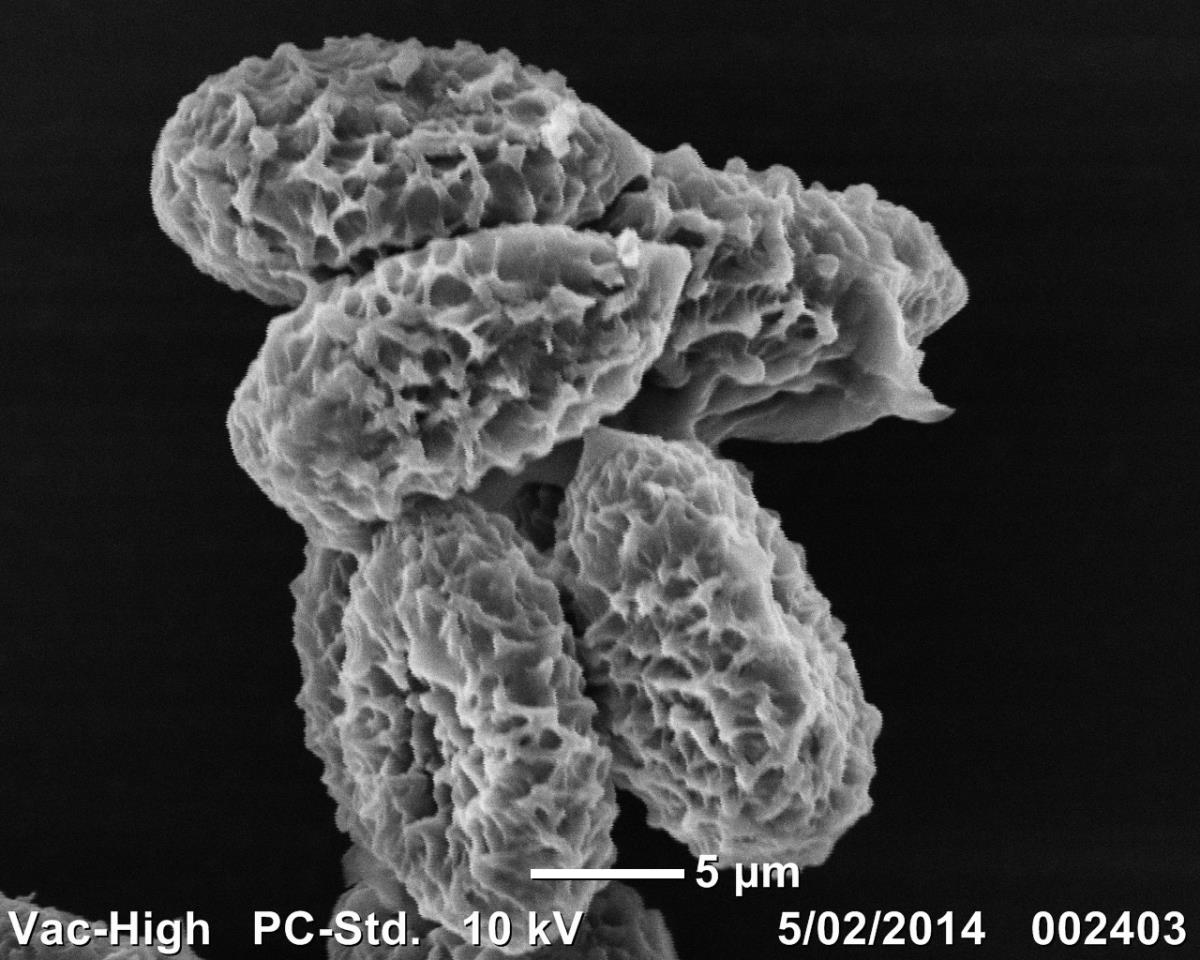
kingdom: Fungi
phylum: Basidiomycota
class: Agaricomycetes
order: Agaricales
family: Cortinariaceae
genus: Cortinarius
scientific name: Cortinarius
